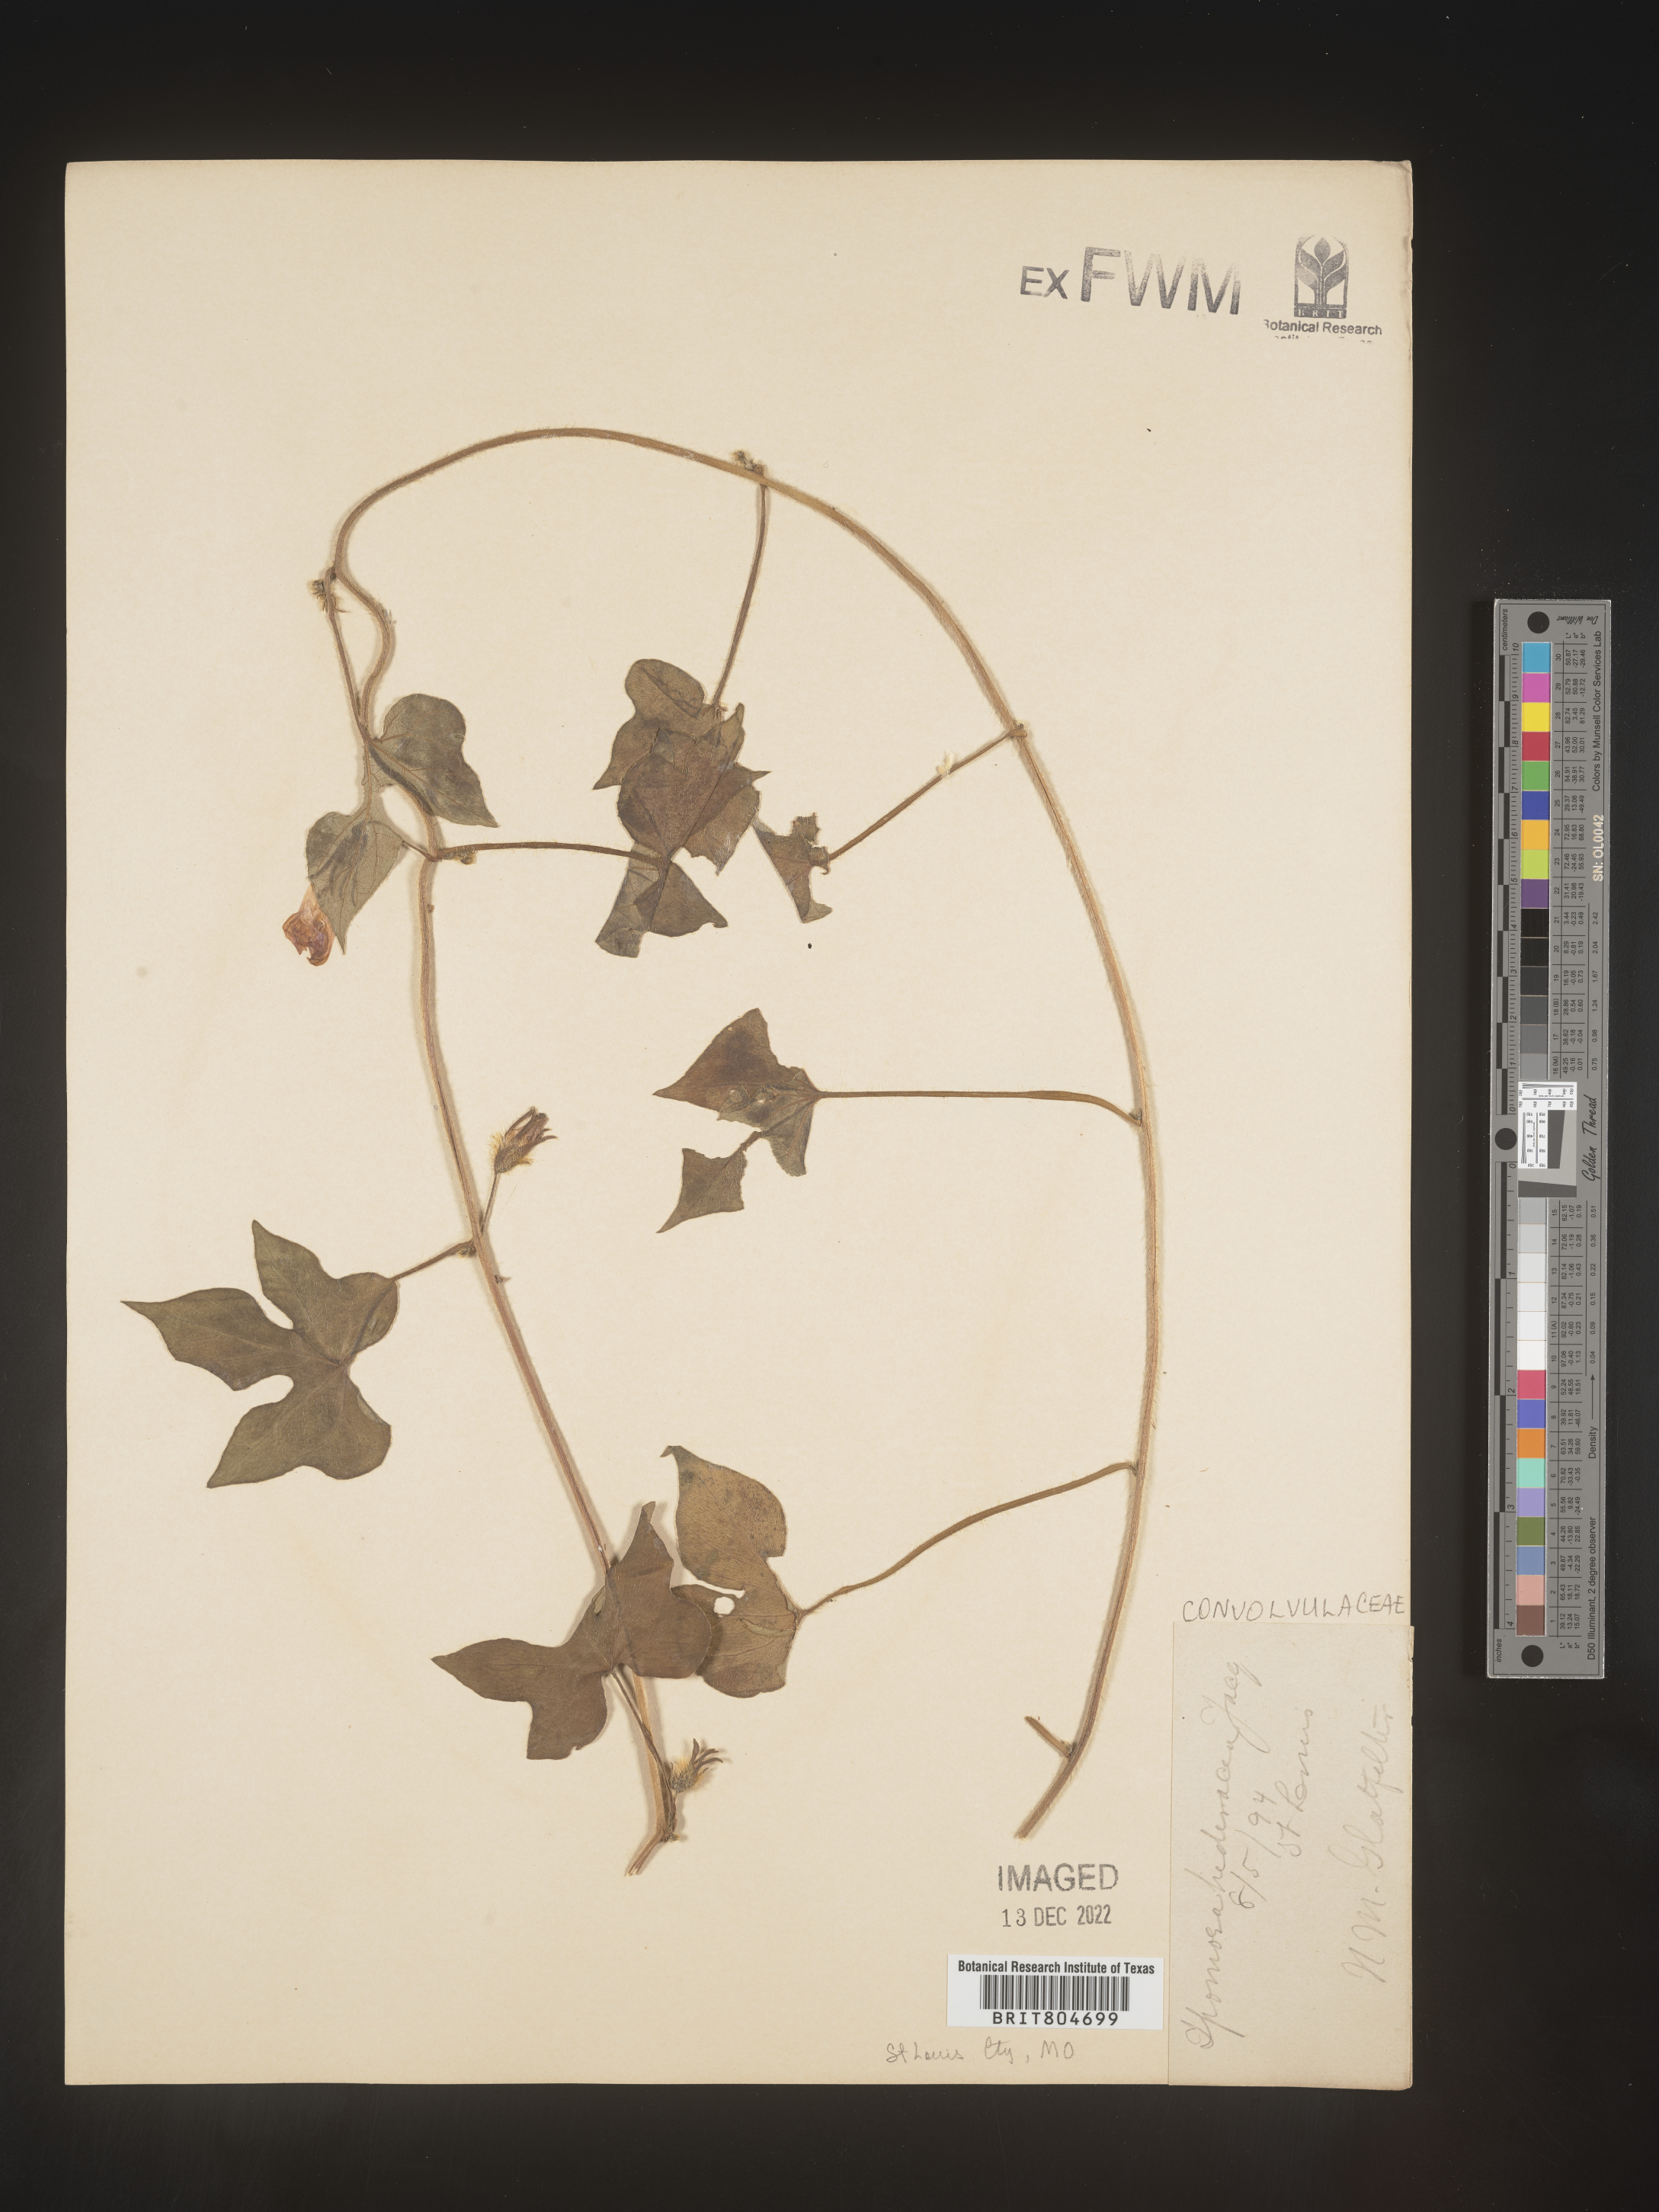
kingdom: Plantae
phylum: Tracheophyta
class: Magnoliopsida
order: Solanales
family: Convolvulaceae
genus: Ipomoea
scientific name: Ipomoea hederacea
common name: Ivy-leaved morning-glory
